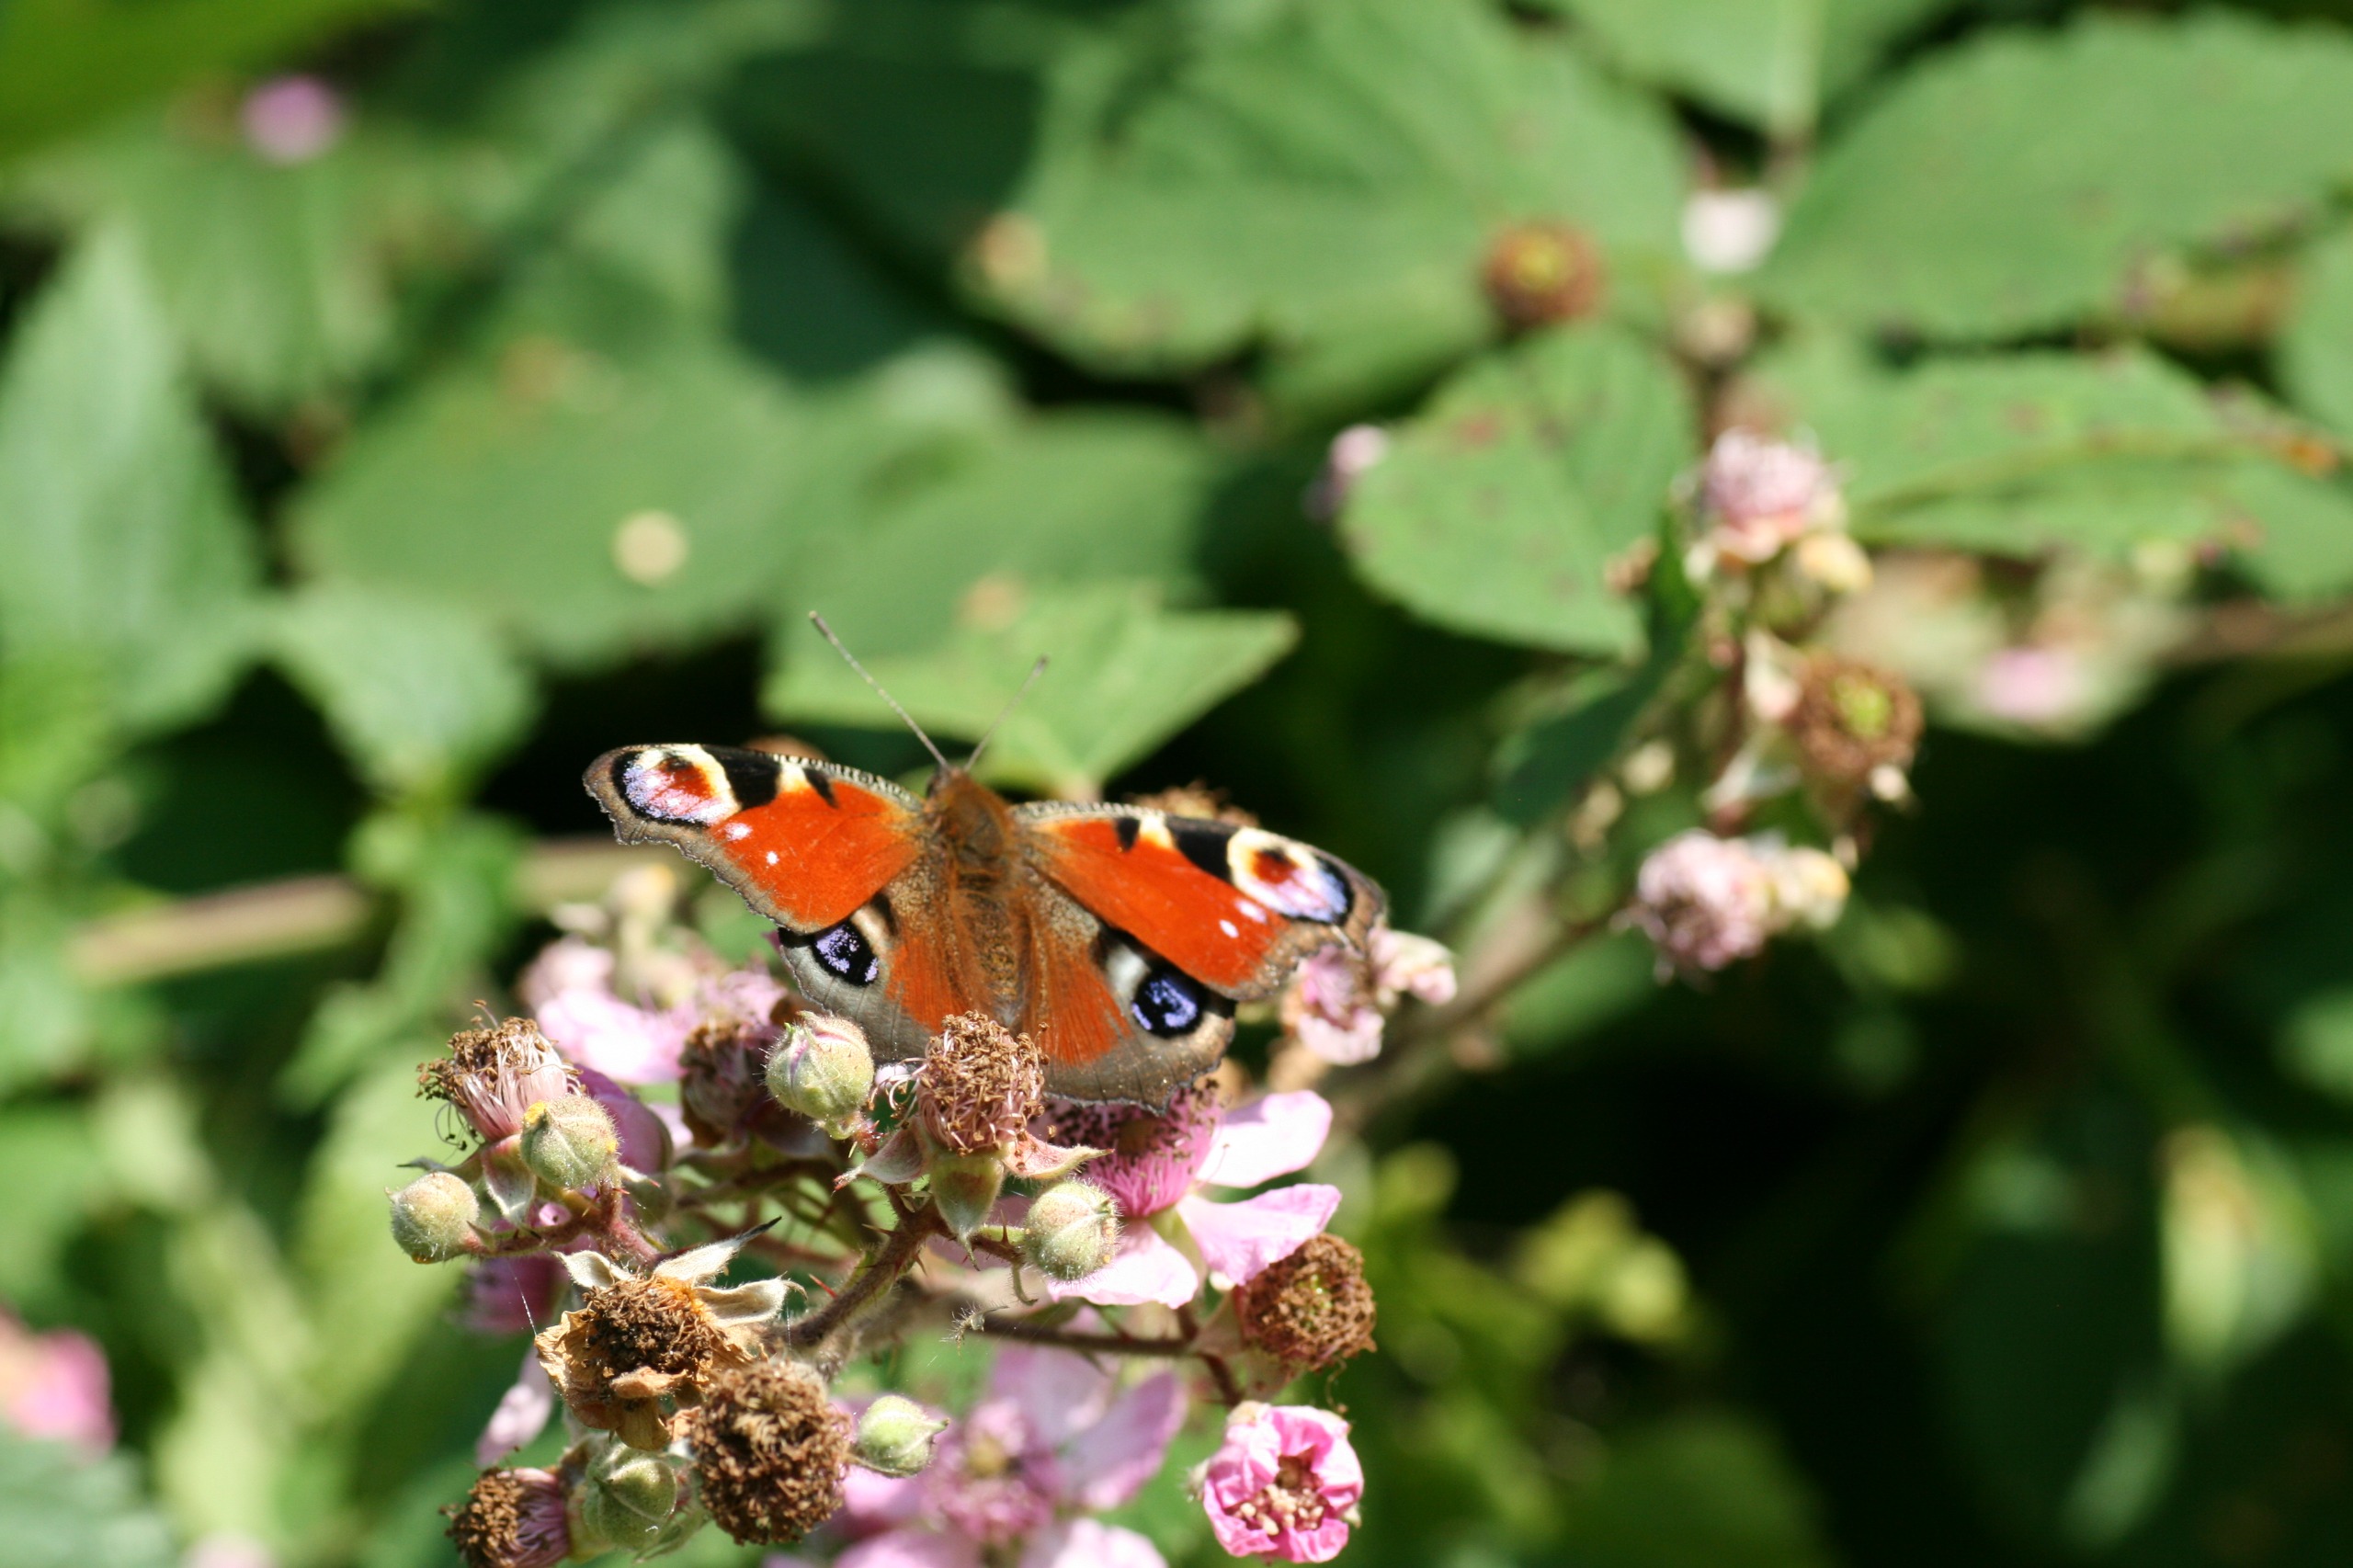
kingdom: Animalia
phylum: Arthropoda
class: Insecta
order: Lepidoptera
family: Nymphalidae
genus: Aglais
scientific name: Aglais io
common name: Dagpåfugleøje
